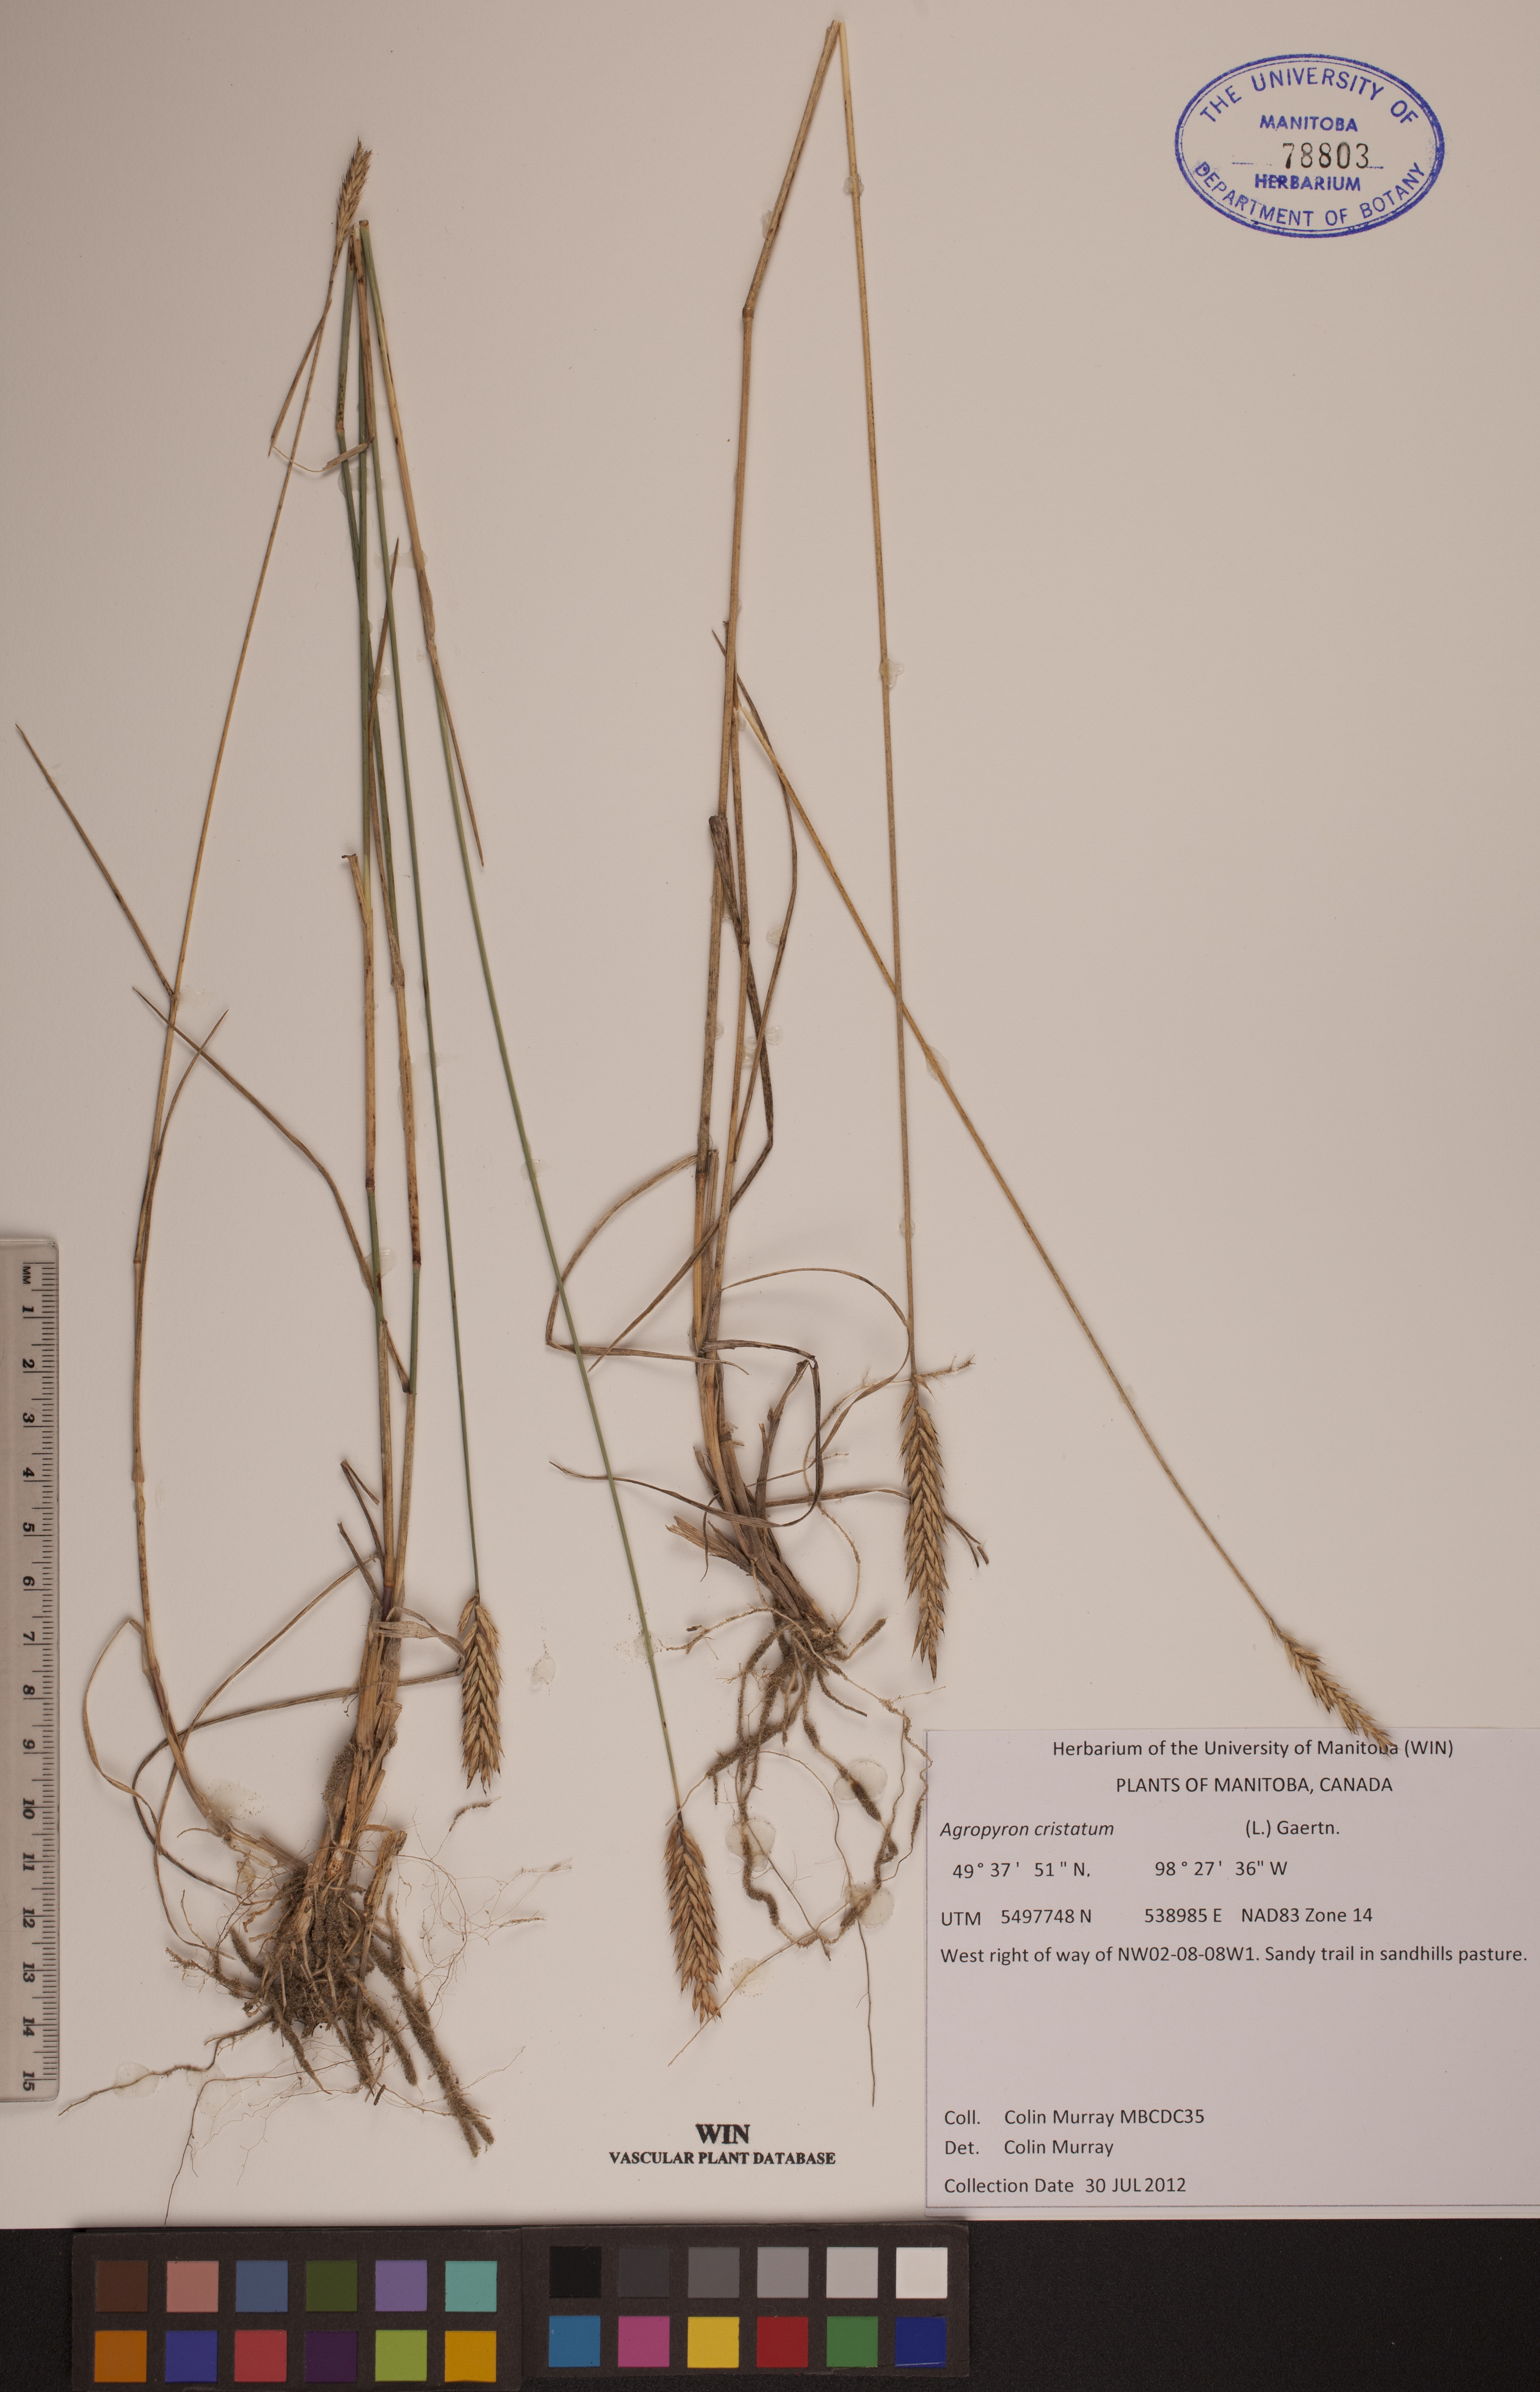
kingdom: Plantae
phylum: Tracheophyta
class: Liliopsida
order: Poales
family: Poaceae
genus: Agropyron
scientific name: Agropyron cristatum
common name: Crested wheatgrass
